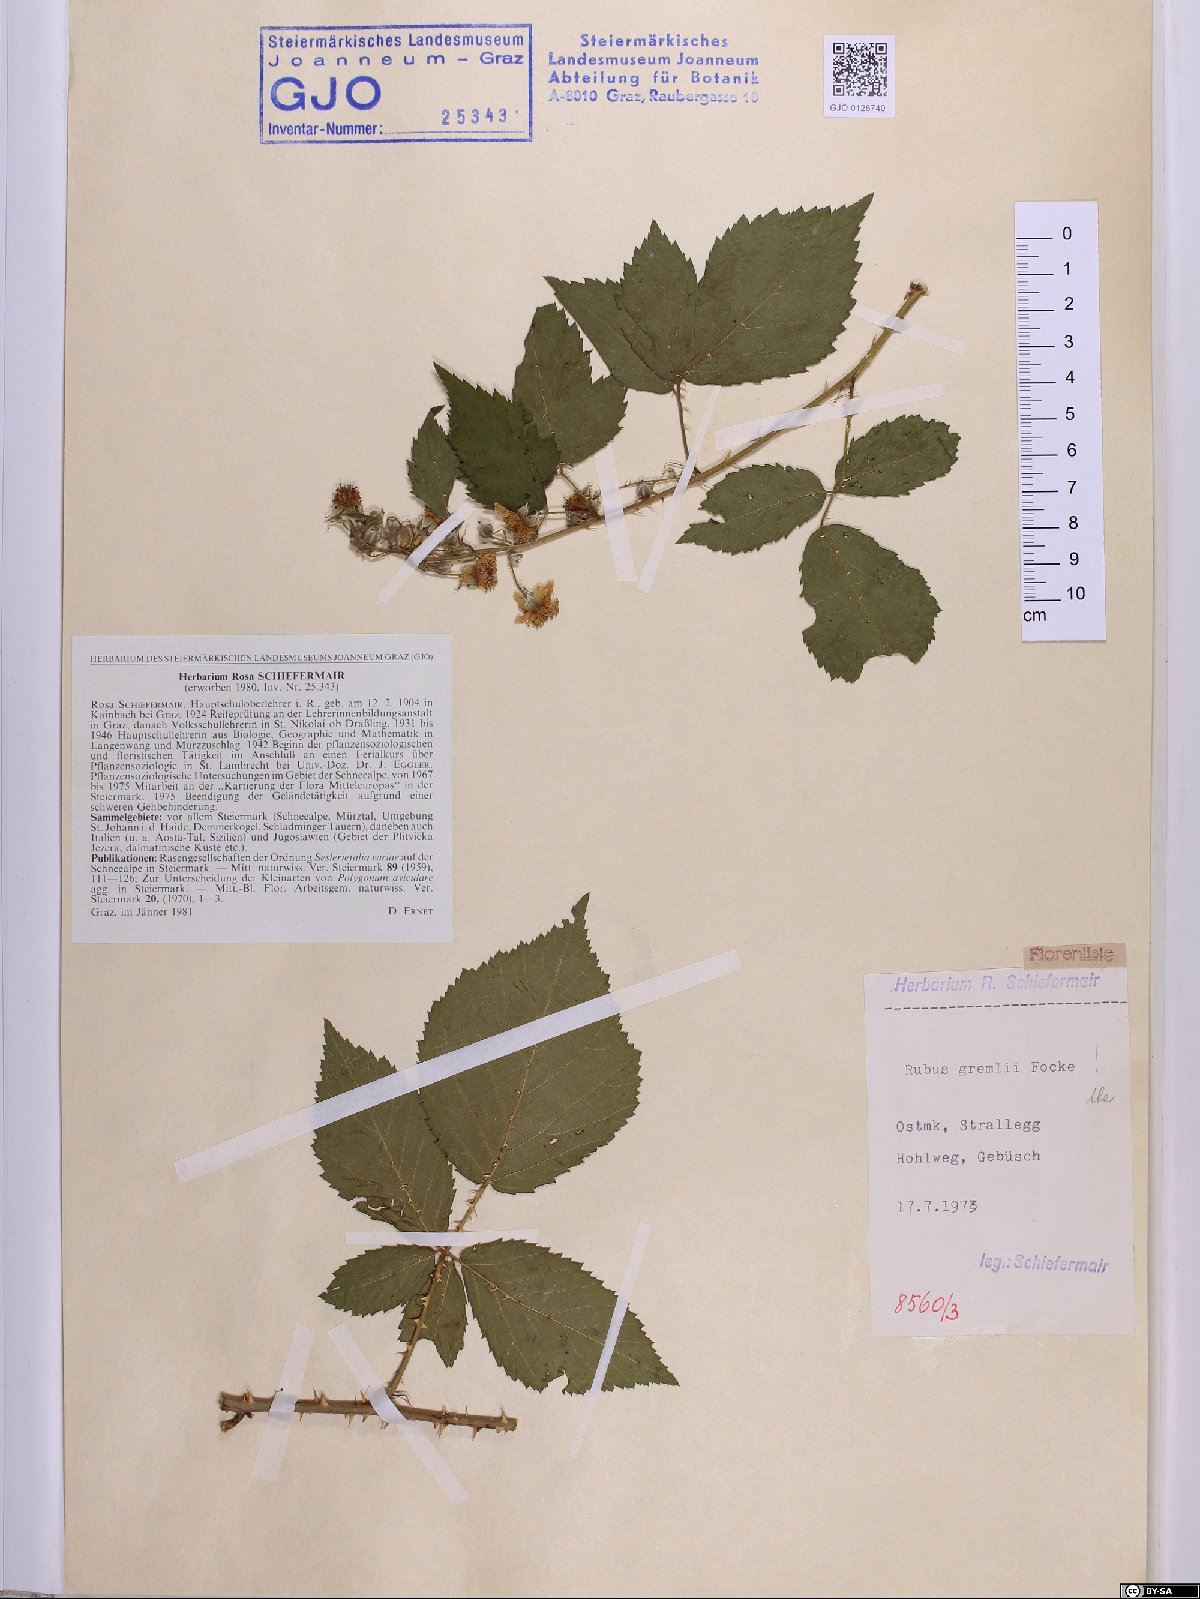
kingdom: Plantae
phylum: Tracheophyta
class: Magnoliopsida
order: Rosales
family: Rosaceae
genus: Rubus
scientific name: Rubus gremlii
